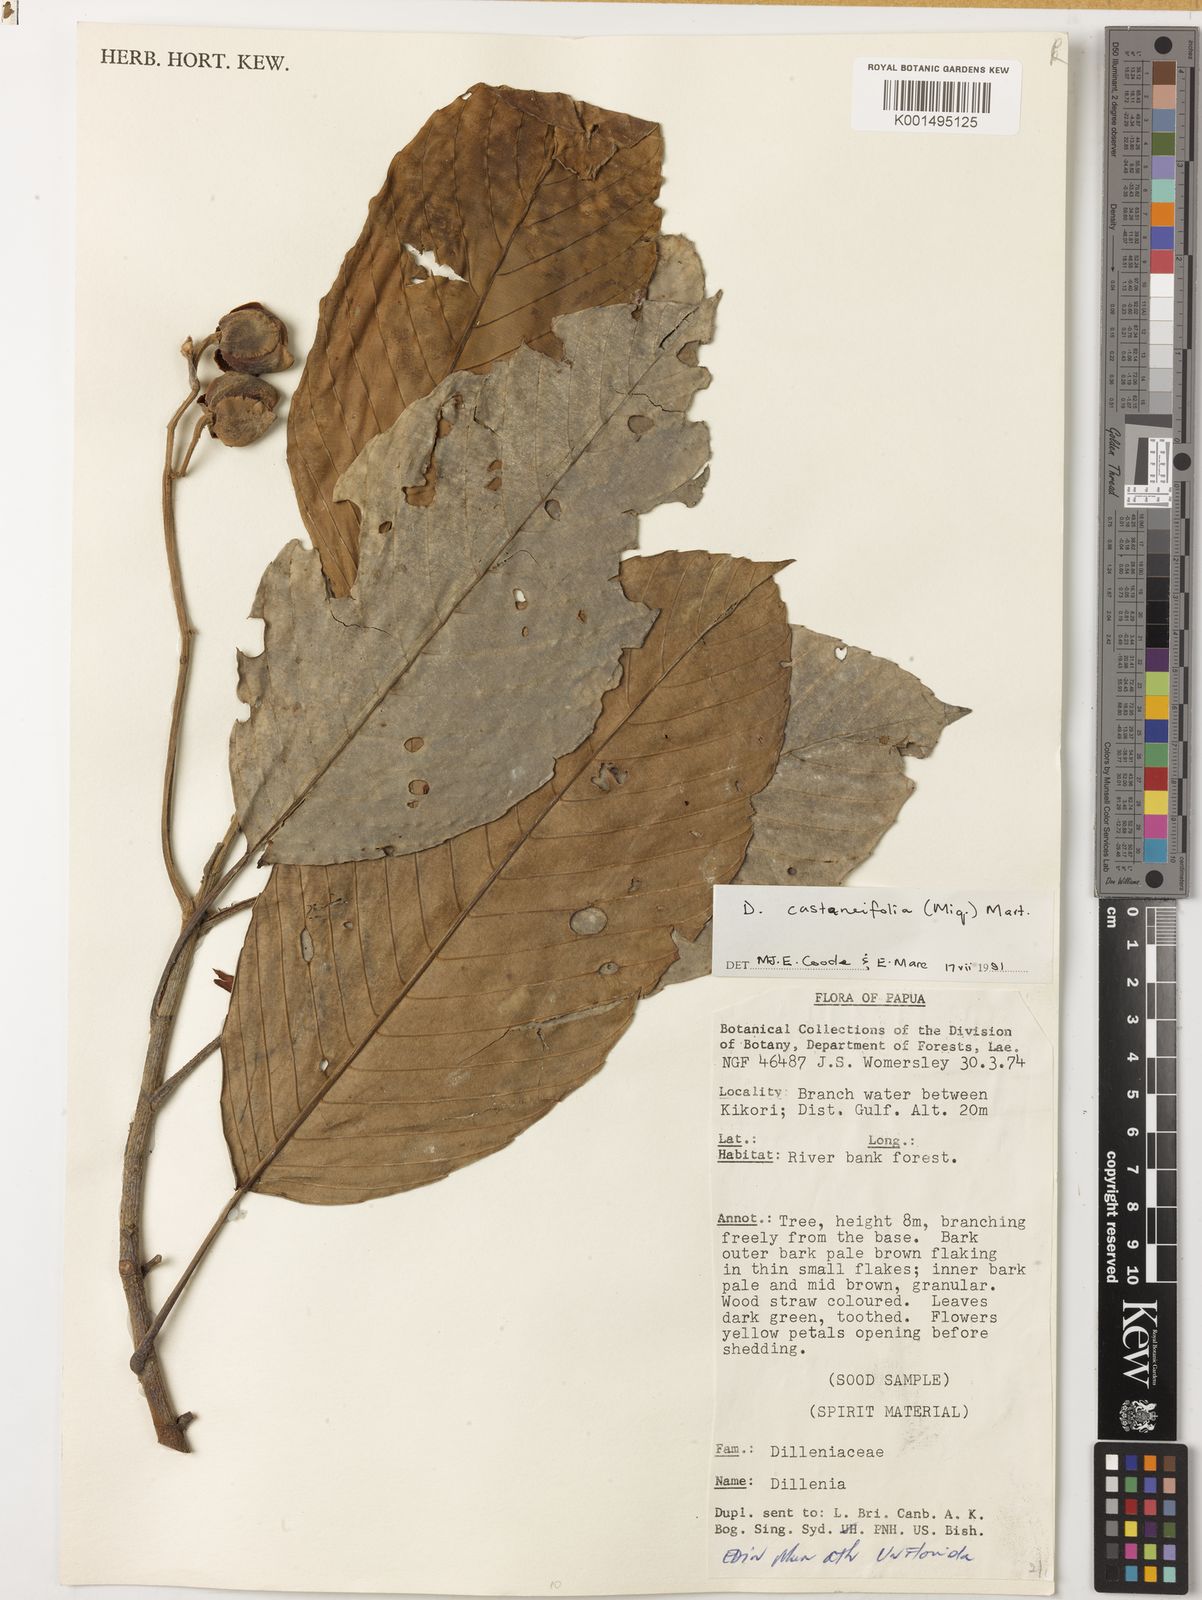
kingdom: Plantae
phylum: Tracheophyta
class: Magnoliopsida
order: Dilleniales
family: Dilleniaceae
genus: Dillenia
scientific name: Dillenia castaneifolia
